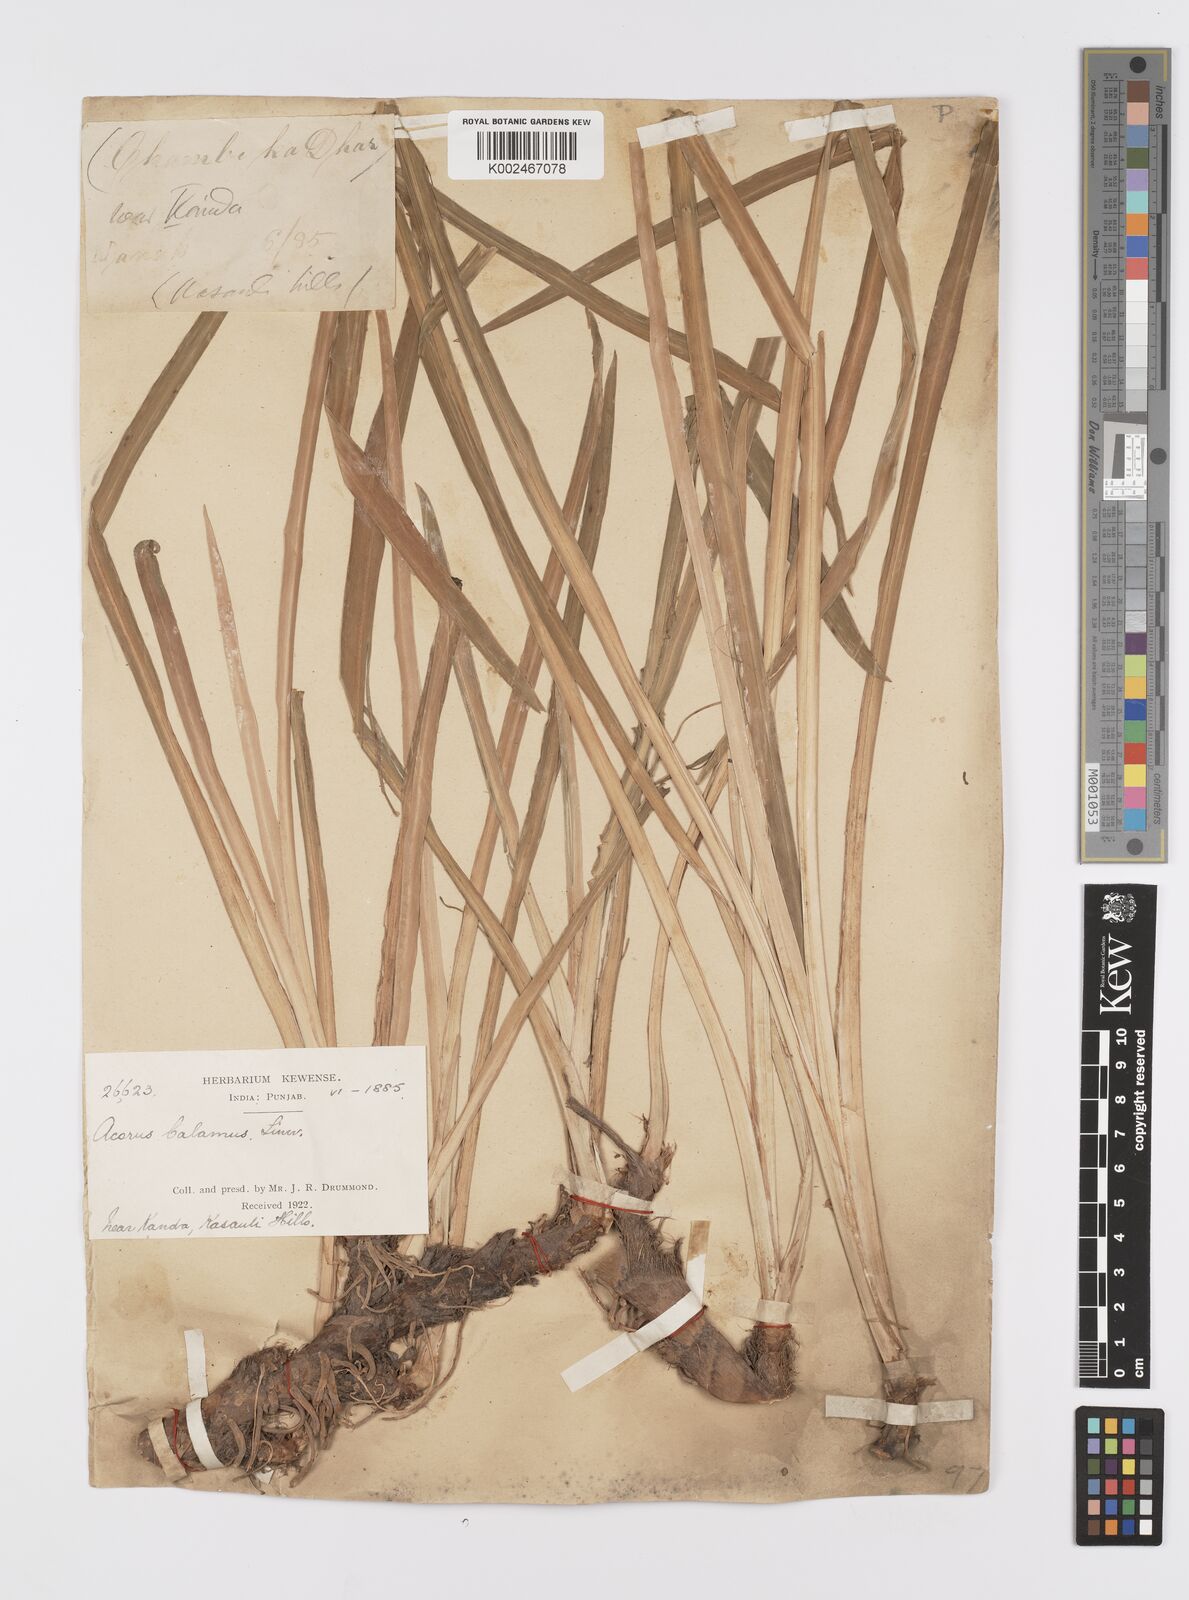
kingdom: Plantae
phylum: Tracheophyta
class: Liliopsida
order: Acorales
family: Acoraceae
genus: Acorus
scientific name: Acorus calamus
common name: Sweet-flag
